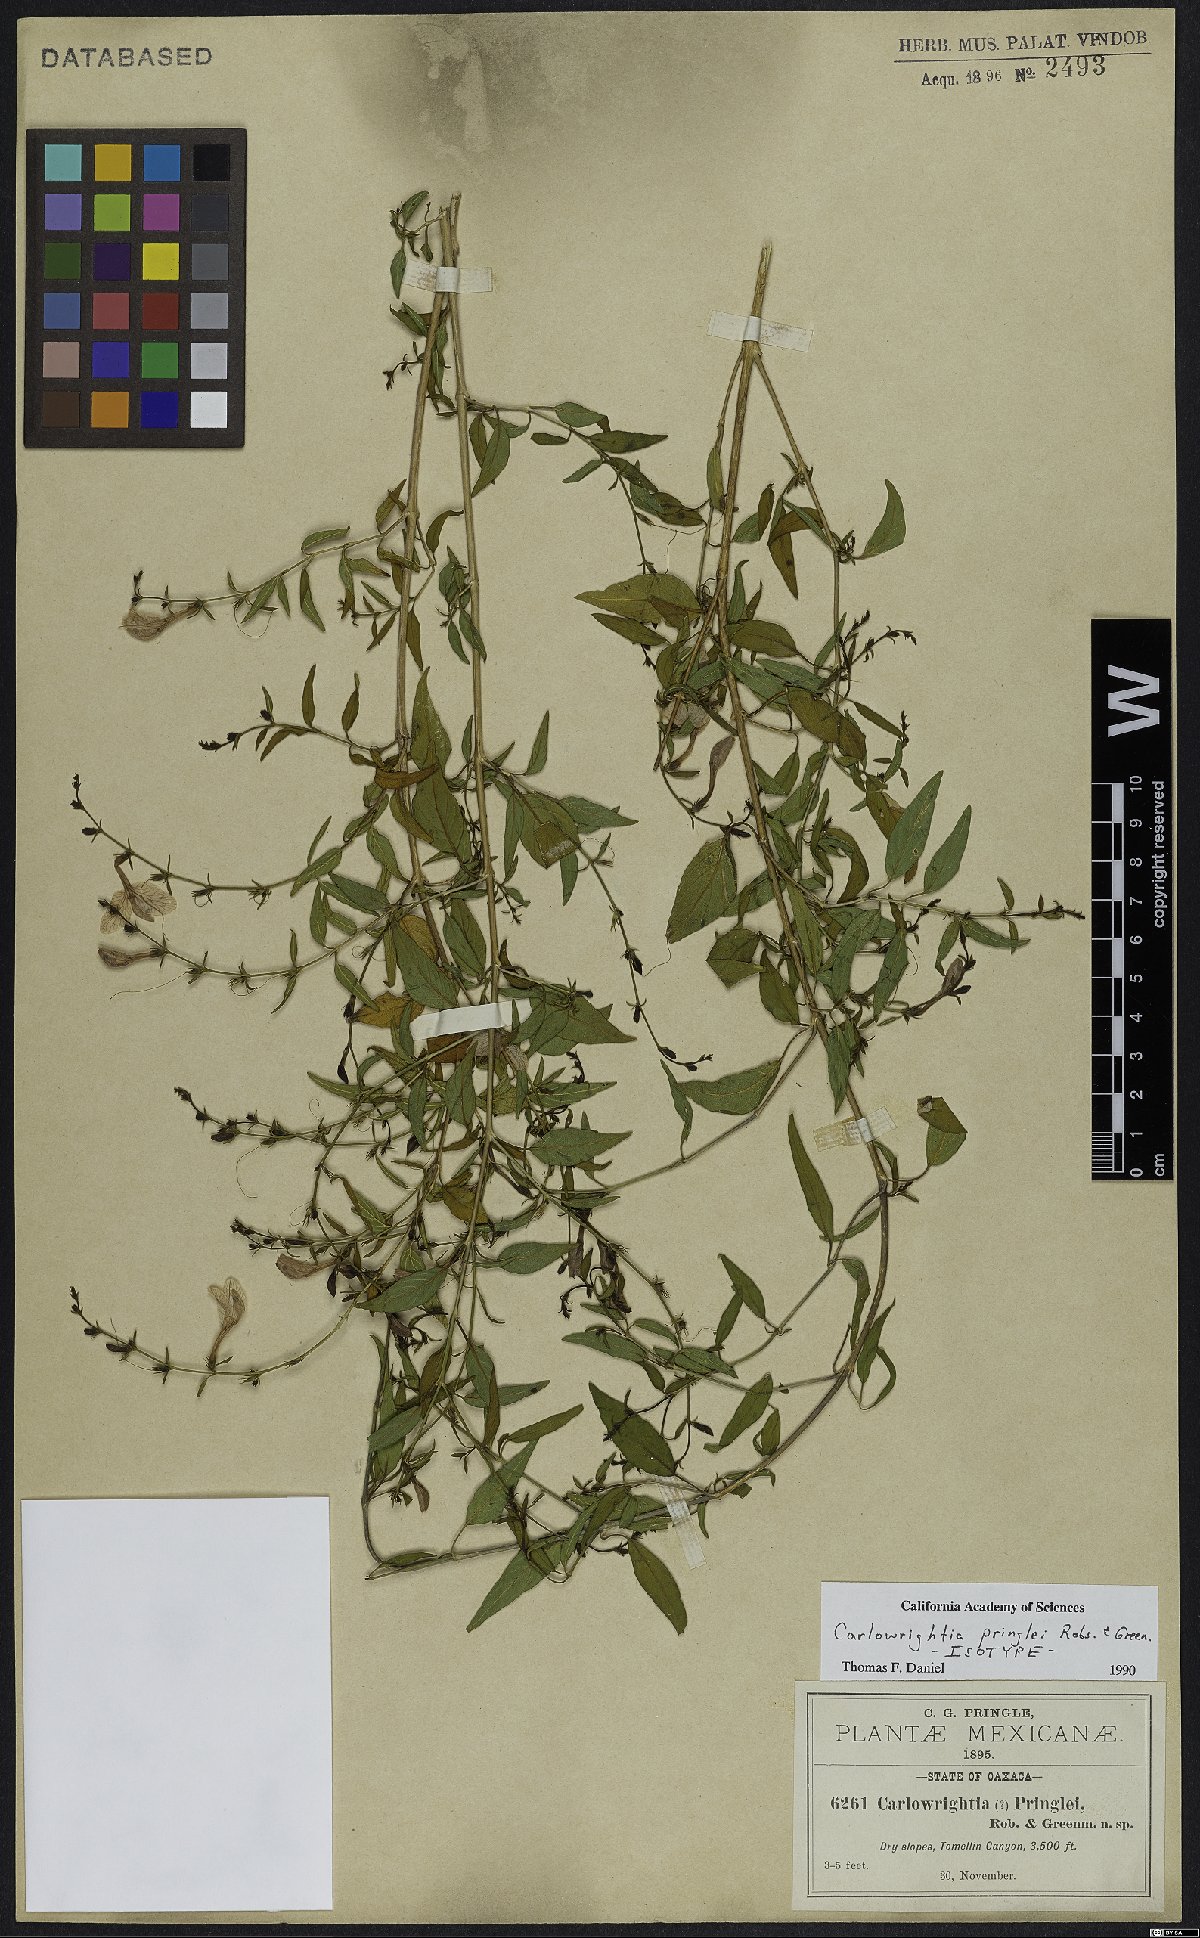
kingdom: Plantae
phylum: Tracheophyta
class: Magnoliopsida
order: Lamiales
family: Acanthaceae
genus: Carlowrightia
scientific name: Carlowrightia pringlei
